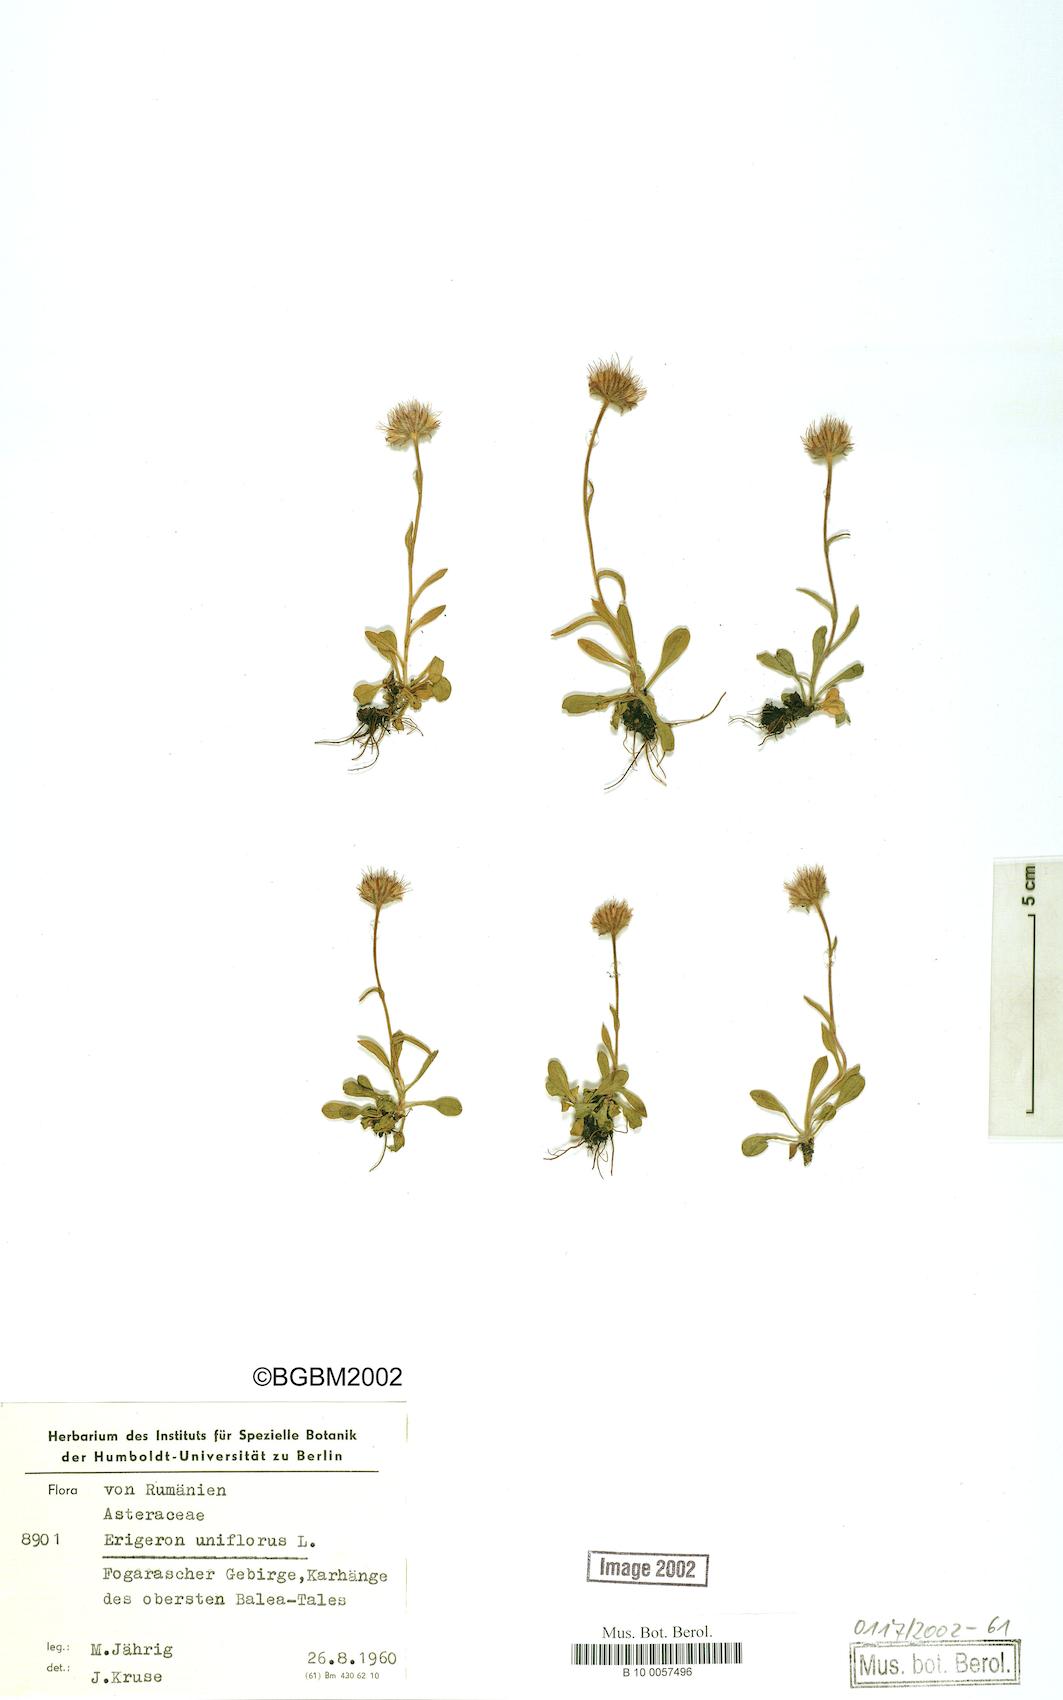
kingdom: Plantae
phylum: Tracheophyta
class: Magnoliopsida
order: Asterales
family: Asteraceae
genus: Erigeron
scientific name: Erigeron uniflorus
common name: Northern daisy
